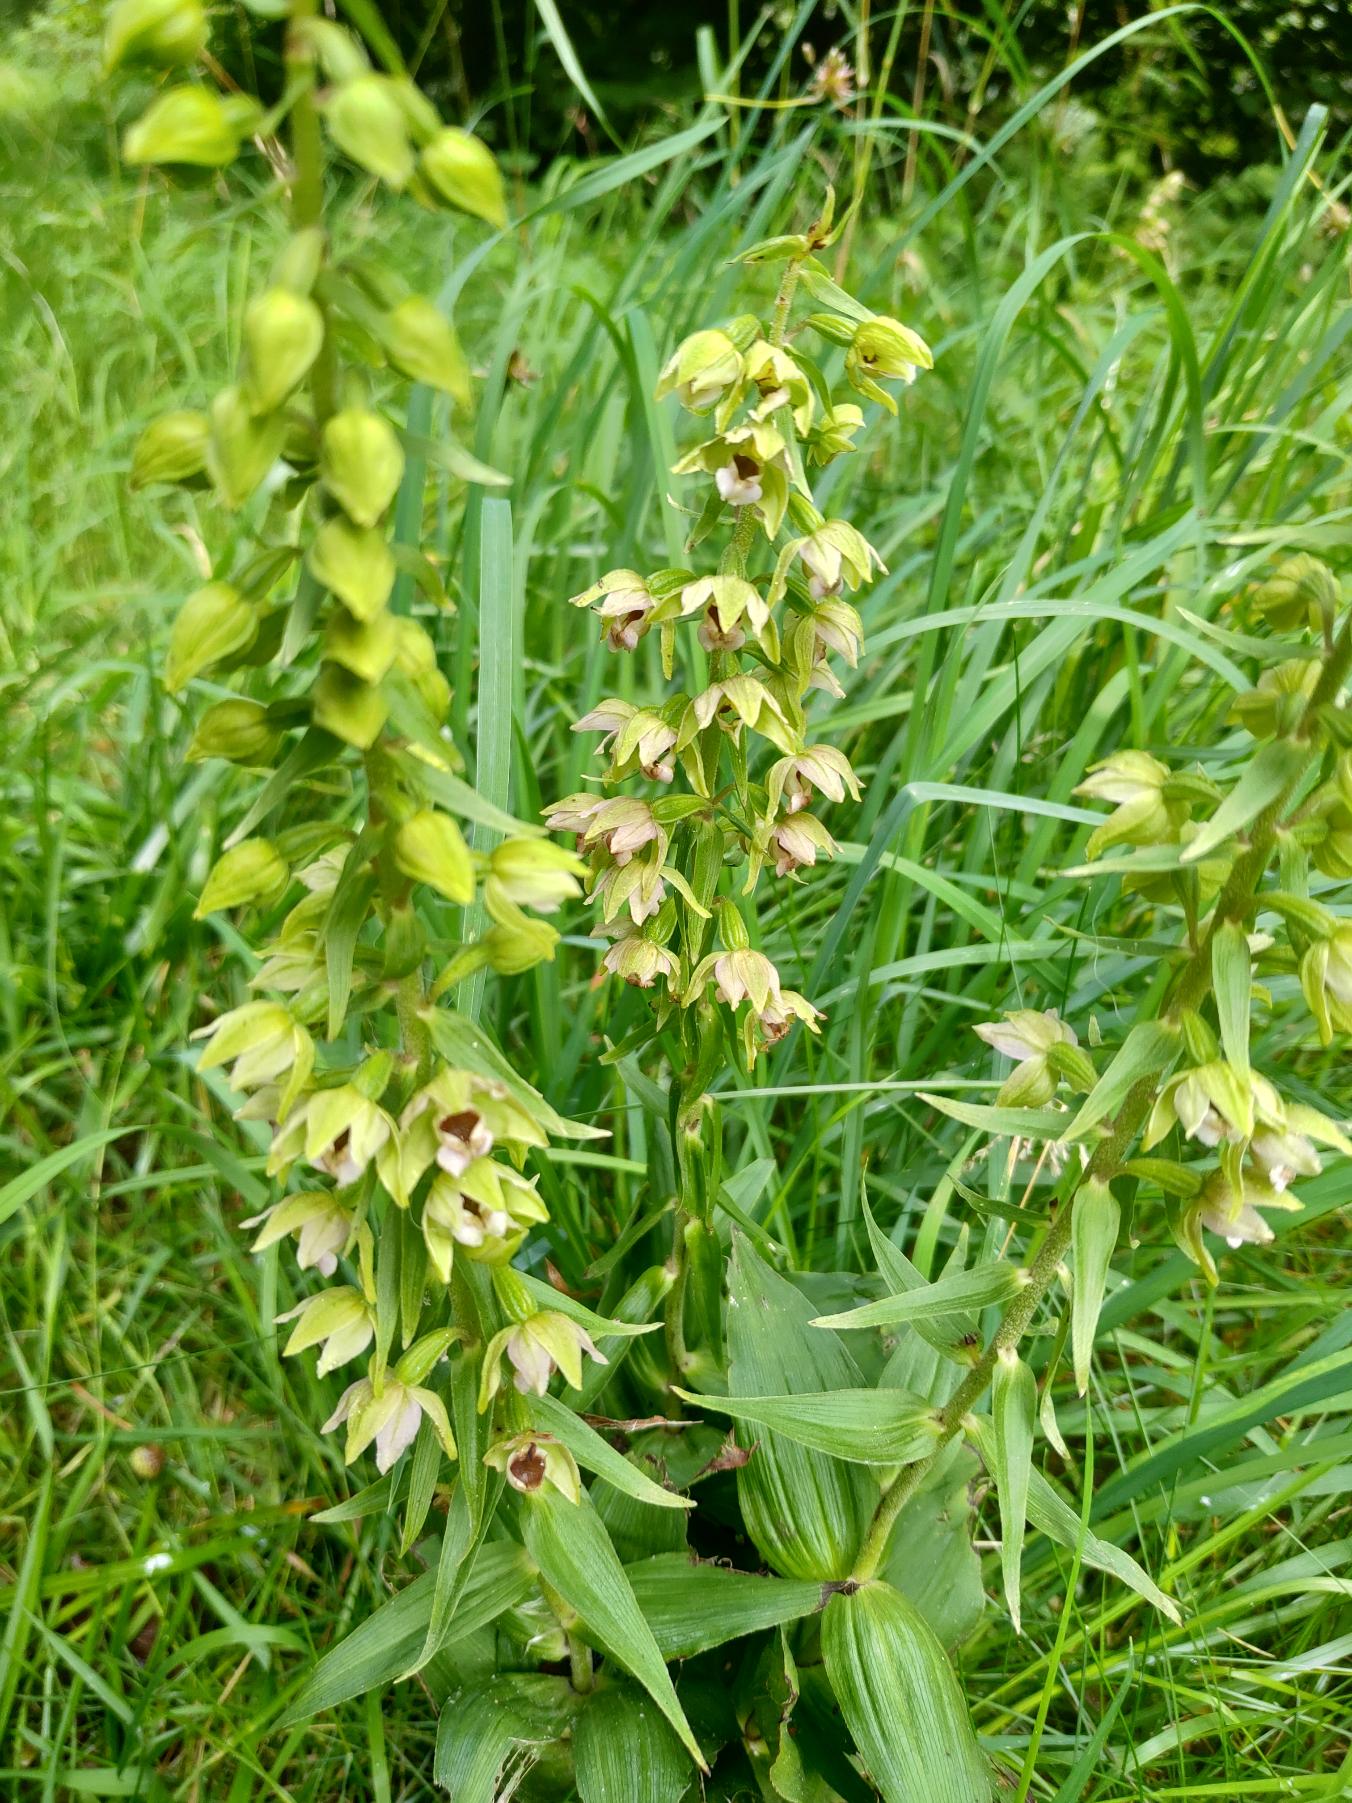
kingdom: Plantae
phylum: Tracheophyta
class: Liliopsida
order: Asparagales
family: Orchidaceae
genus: Epipactis
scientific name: Epipactis helleborine
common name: Skov-hullæbe
